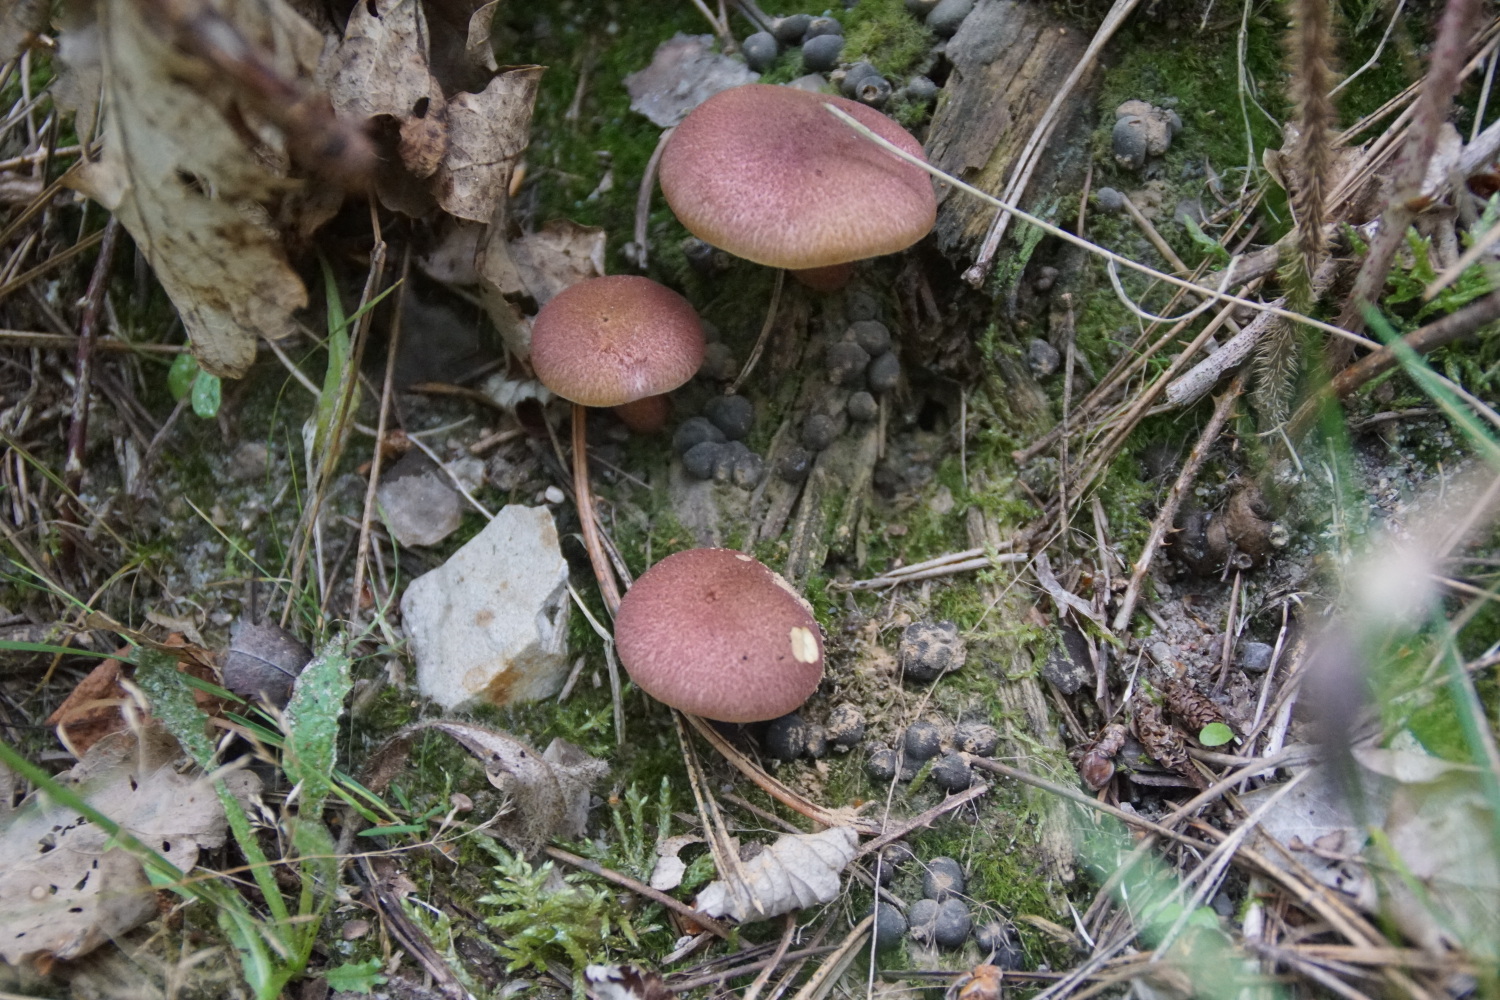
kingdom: Fungi
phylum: Basidiomycota
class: Agaricomycetes
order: Agaricales
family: Tricholomataceae
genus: Tricholomopsis
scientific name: Tricholomopsis rutilans
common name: purpur-væbnerhat
